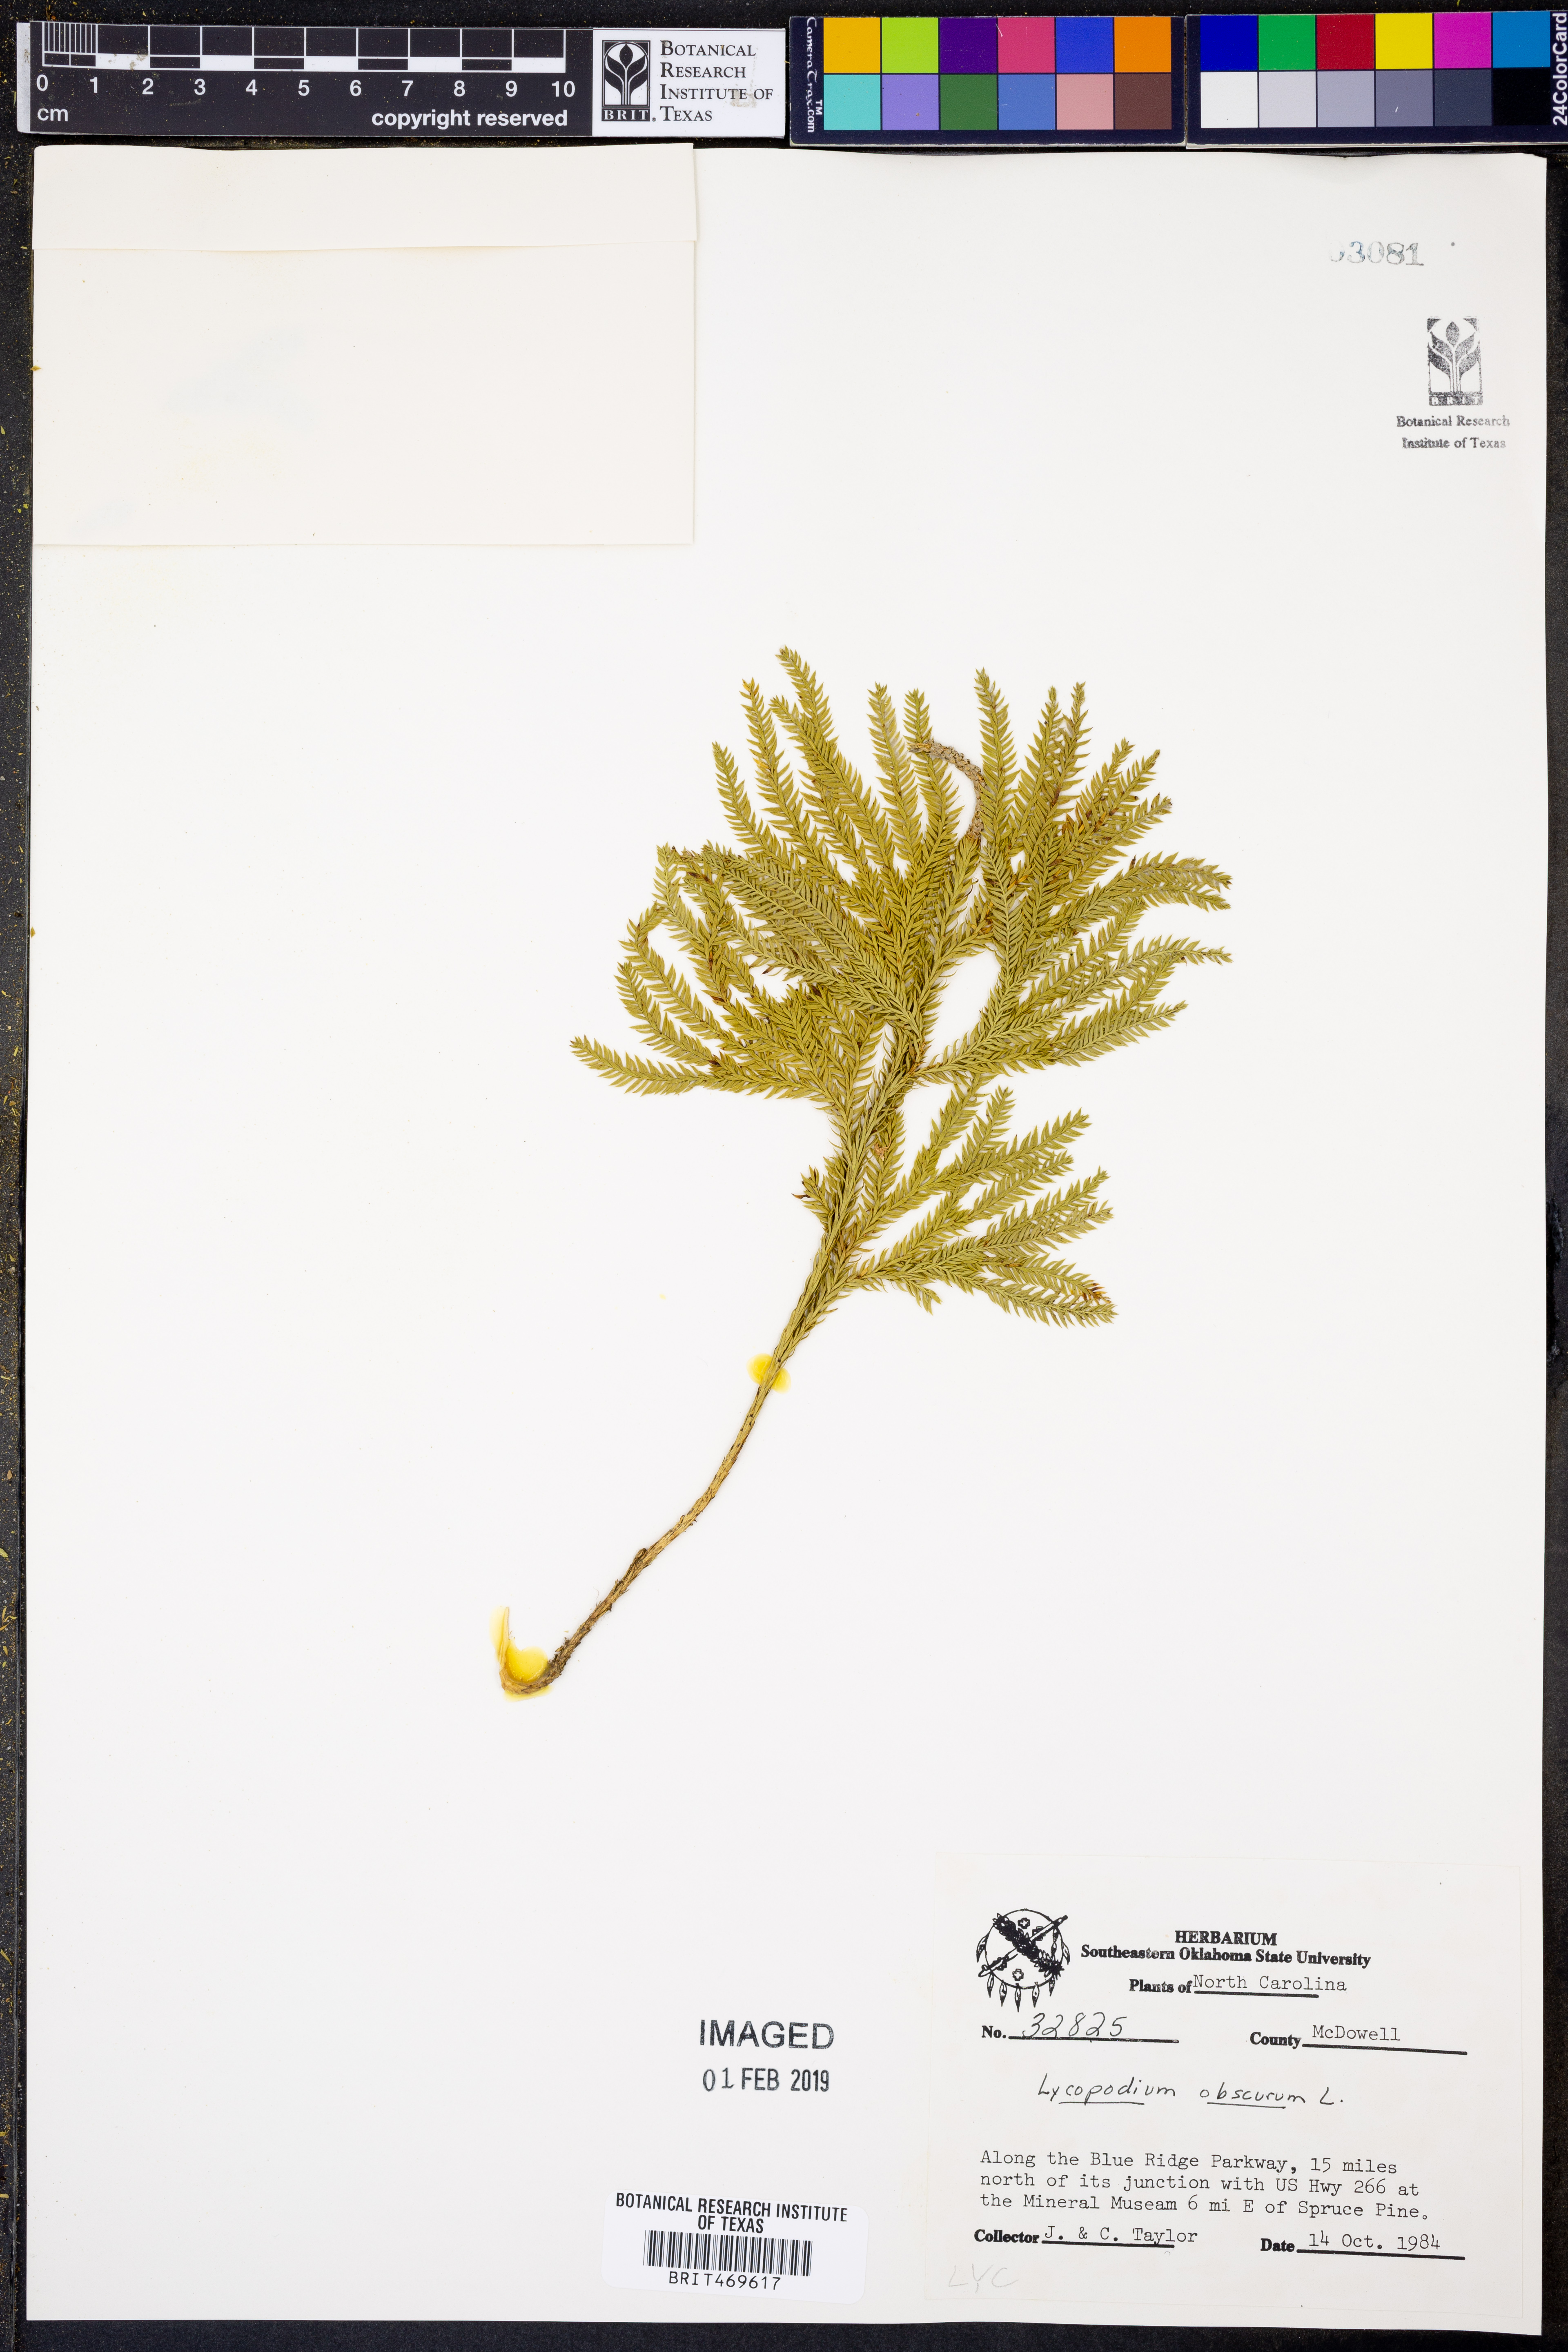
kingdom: Plantae
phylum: Tracheophyta
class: Lycopodiopsida
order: Lycopodiales
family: Lycopodiaceae
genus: Dendrolycopodium
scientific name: Dendrolycopodium obscurum
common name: Common ground-pine
